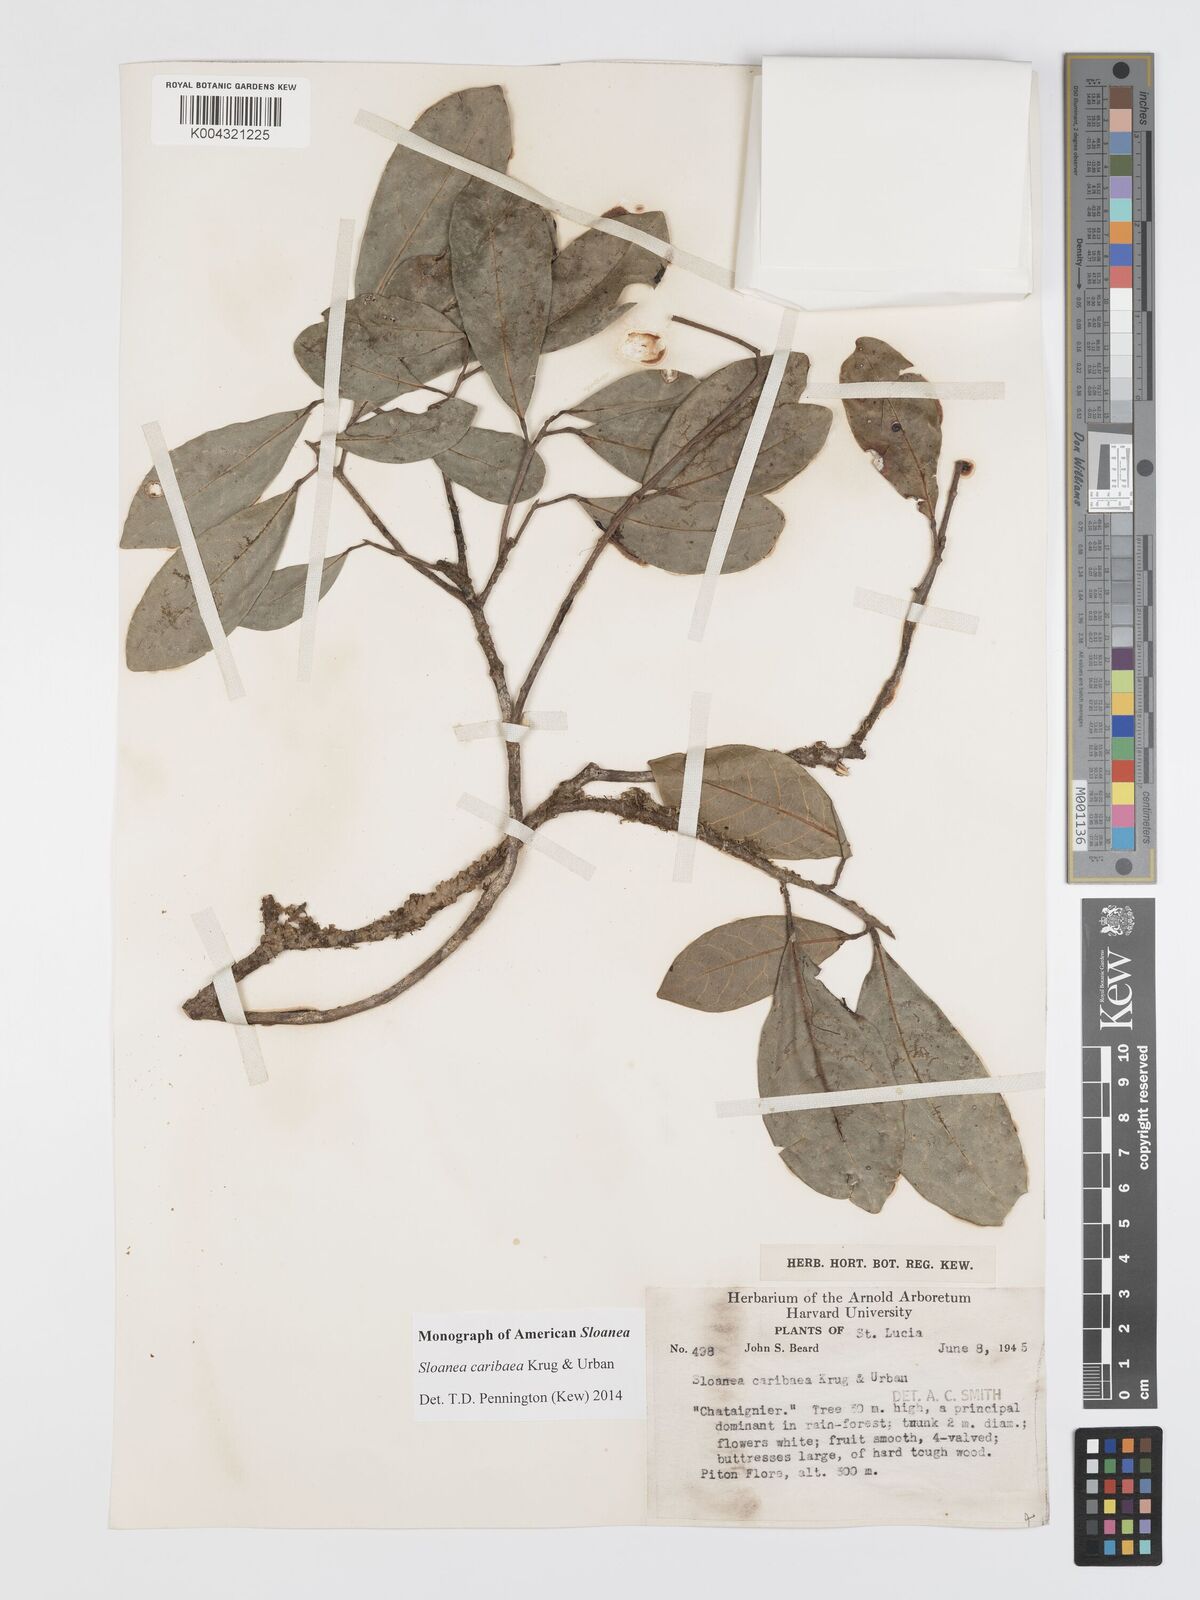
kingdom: Plantae
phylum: Tracheophyta
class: Magnoliopsida
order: Oxalidales
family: Elaeocarpaceae
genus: Sloanea
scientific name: Sloanea caribaea
